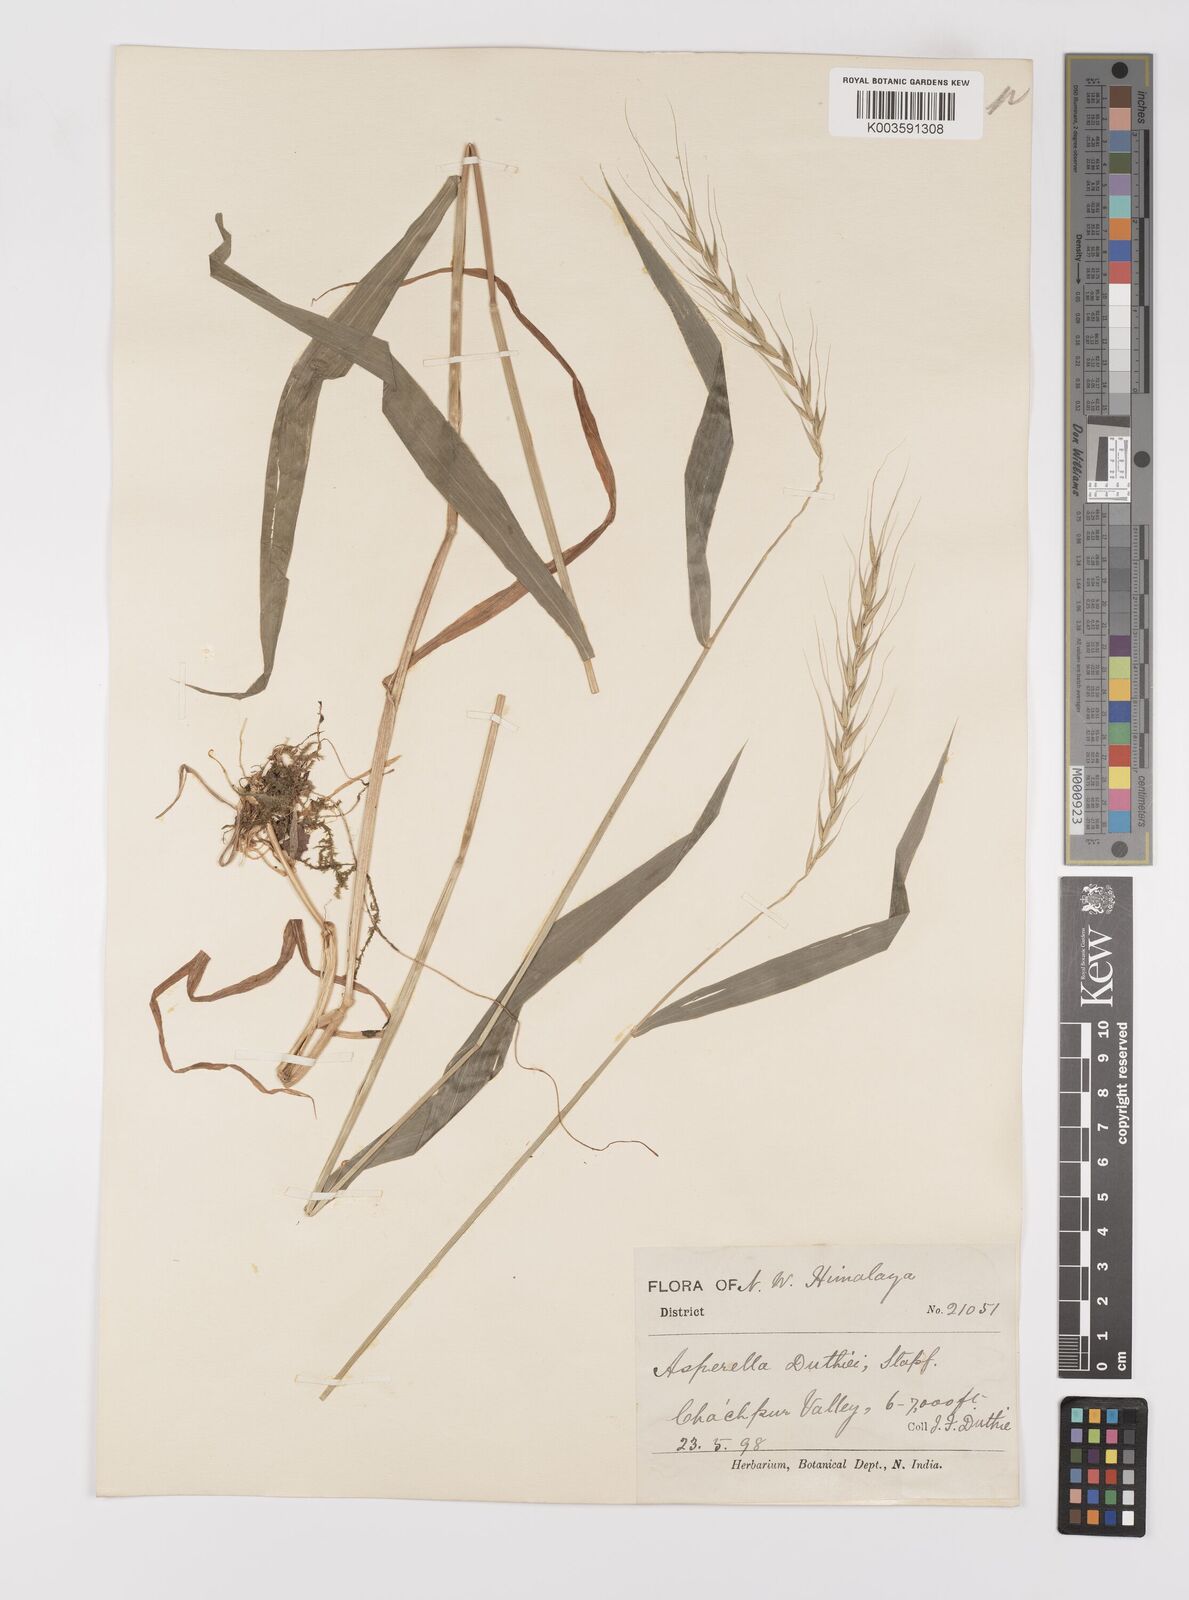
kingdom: Plantae
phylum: Tracheophyta
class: Liliopsida
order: Poales
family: Poaceae
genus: Leymus
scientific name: Leymus duthiei
